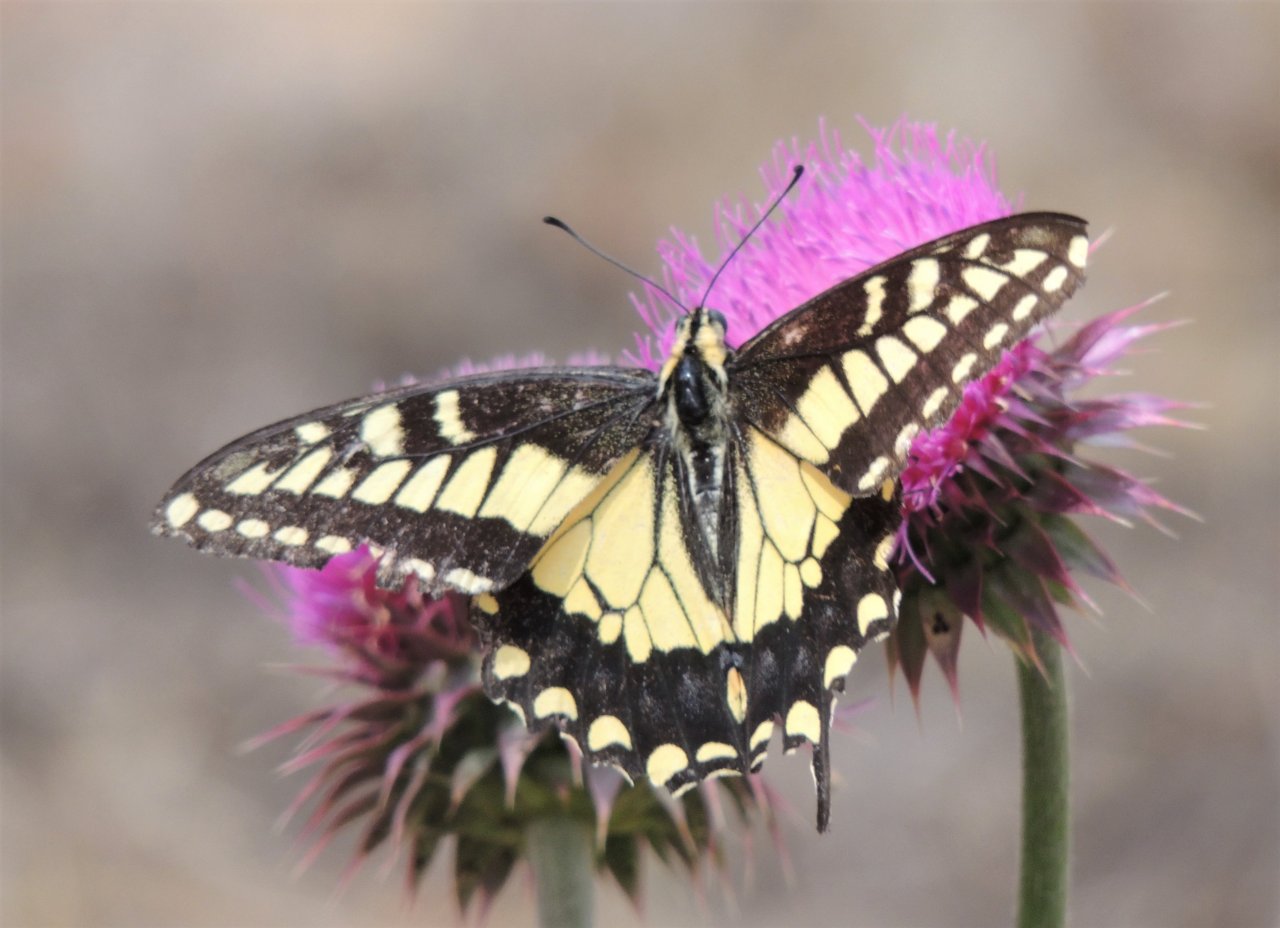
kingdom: Animalia
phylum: Arthropoda
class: Insecta
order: Lepidoptera
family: Papilionidae
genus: Papilio
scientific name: Papilio machaon
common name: Old World Swallowtail
